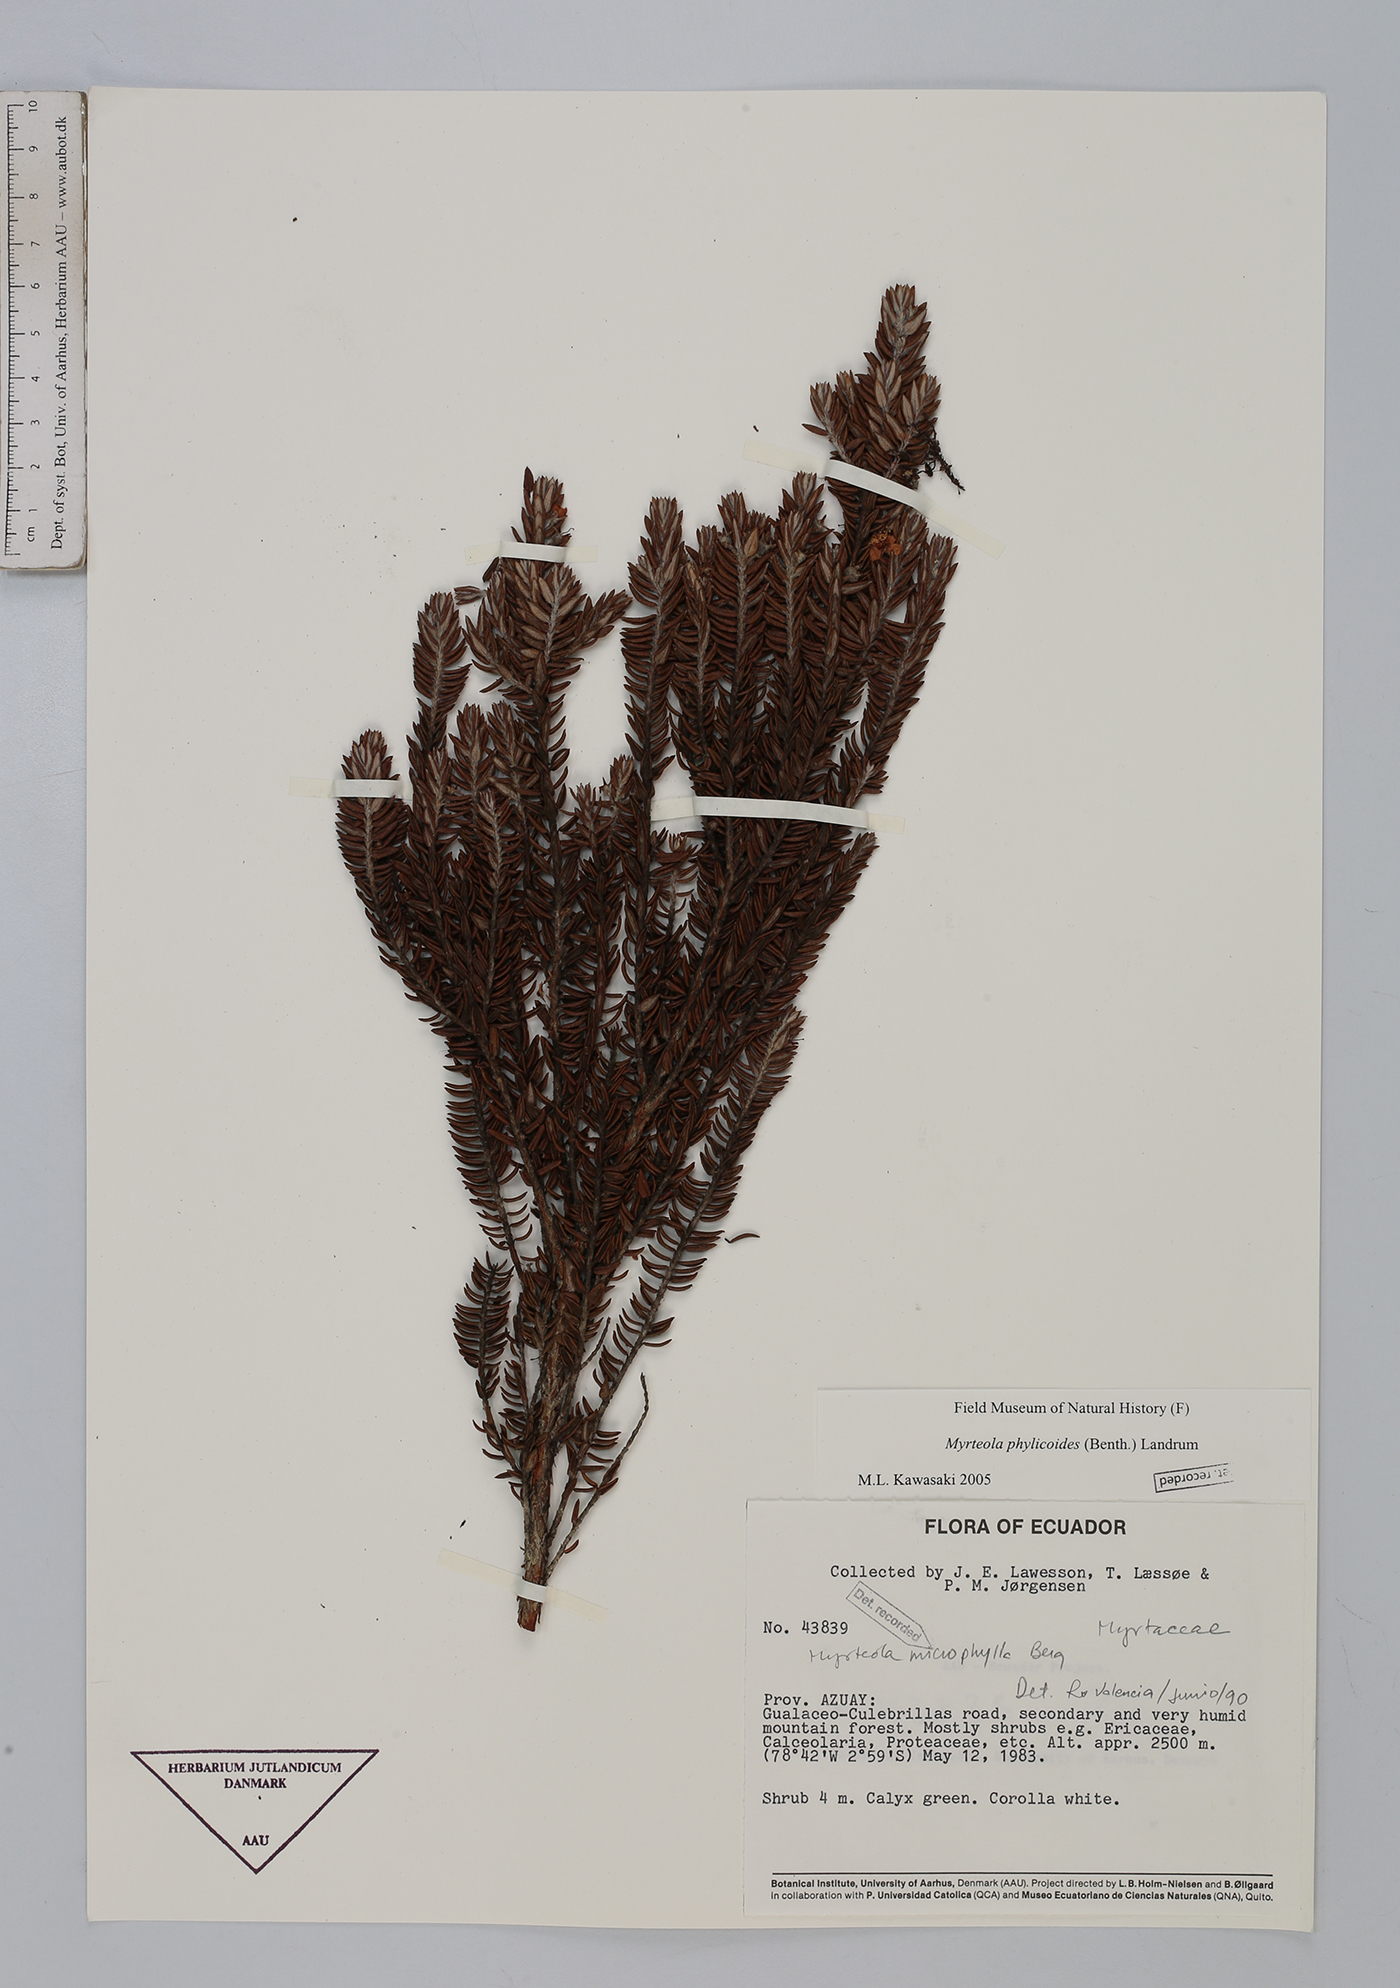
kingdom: Plantae
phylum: Tracheophyta
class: Magnoliopsida
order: Myrtales
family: Myrtaceae
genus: Myrteola
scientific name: Myrteola phylicoides
